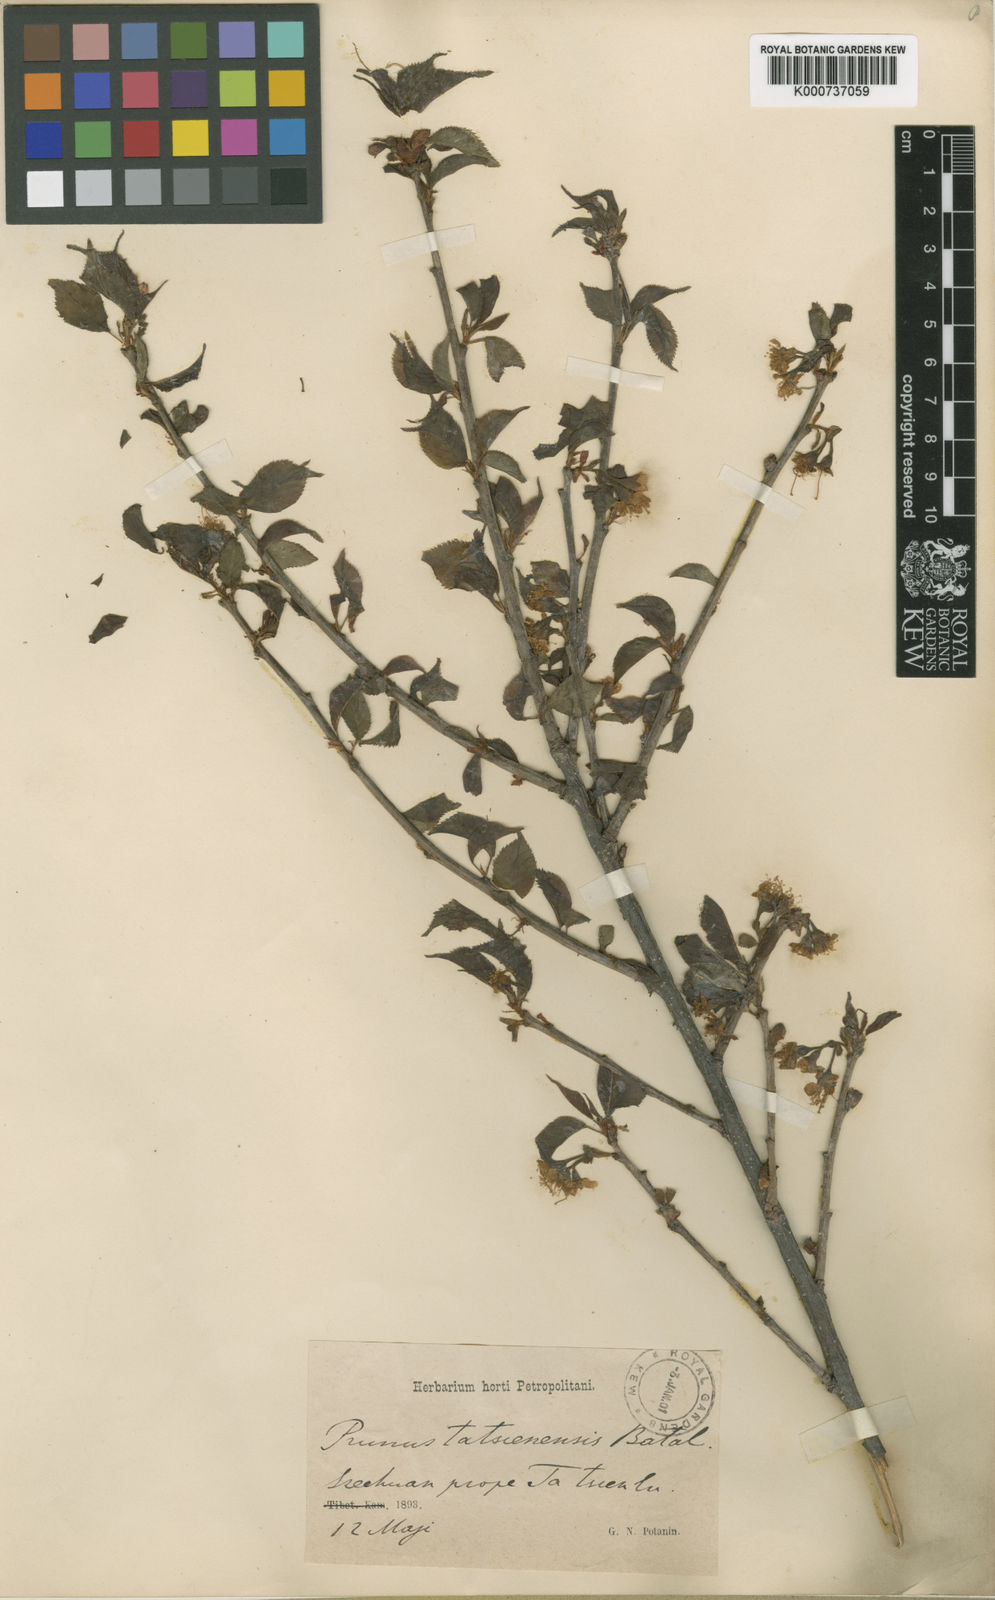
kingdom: Plantae
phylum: Tracheophyta
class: Magnoliopsida
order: Rosales
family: Rosaceae
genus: Prunus
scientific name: Prunus tatsienensis
